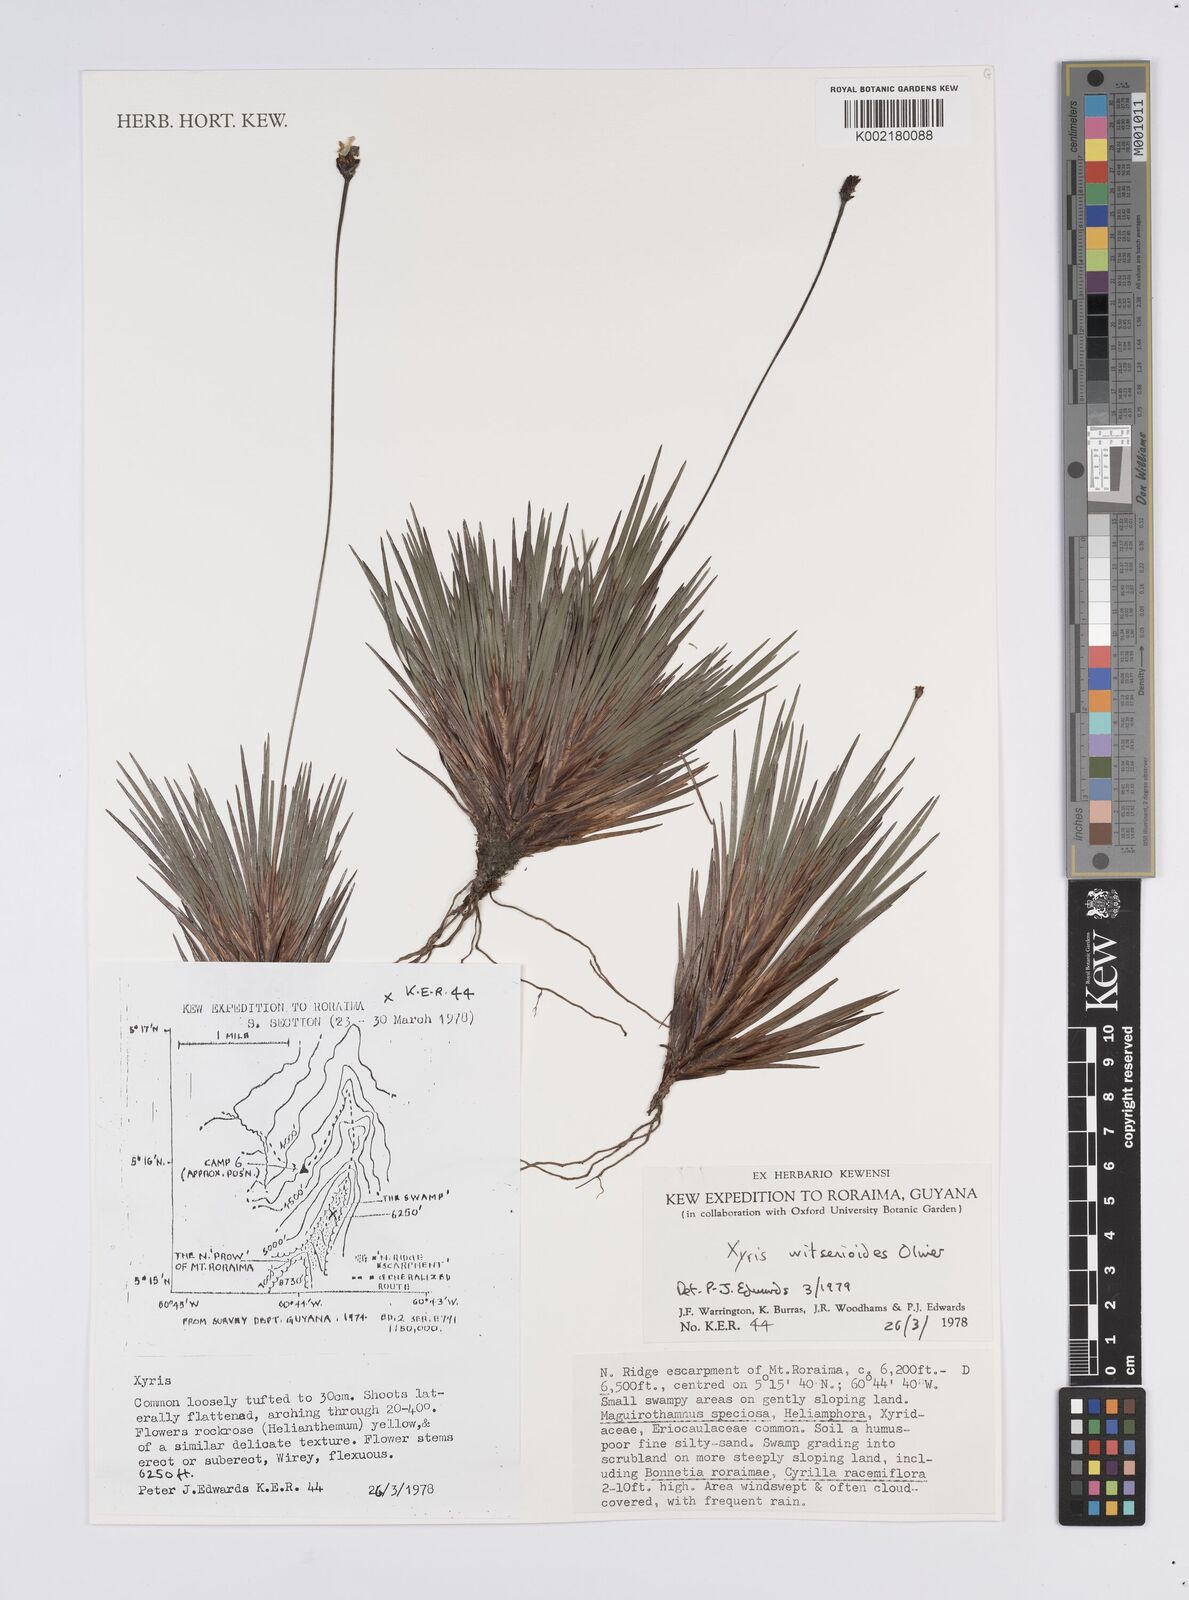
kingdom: Plantae
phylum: Tracheophyta
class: Liliopsida
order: Poales
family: Xyridaceae
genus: Xyris
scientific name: Xyris
